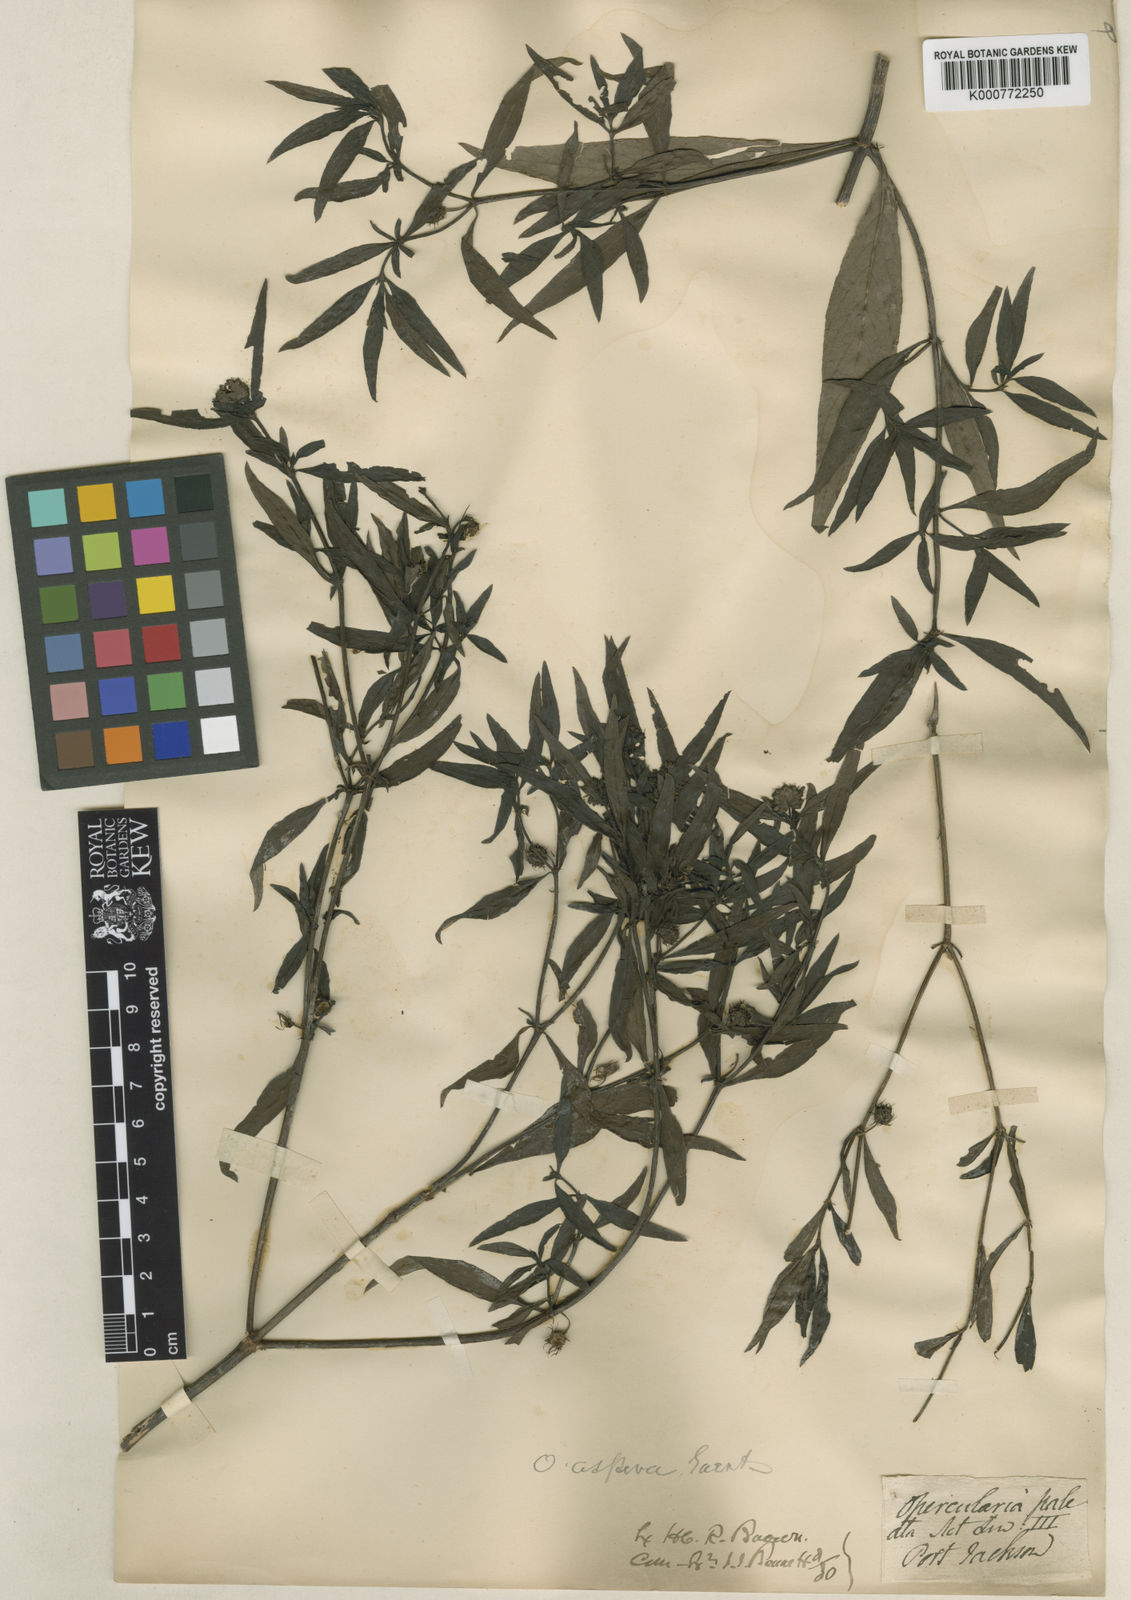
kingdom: Plantae
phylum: Tracheophyta
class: Magnoliopsida
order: Gentianales
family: Rubiaceae
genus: Opercularia
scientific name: Opercularia aspera
